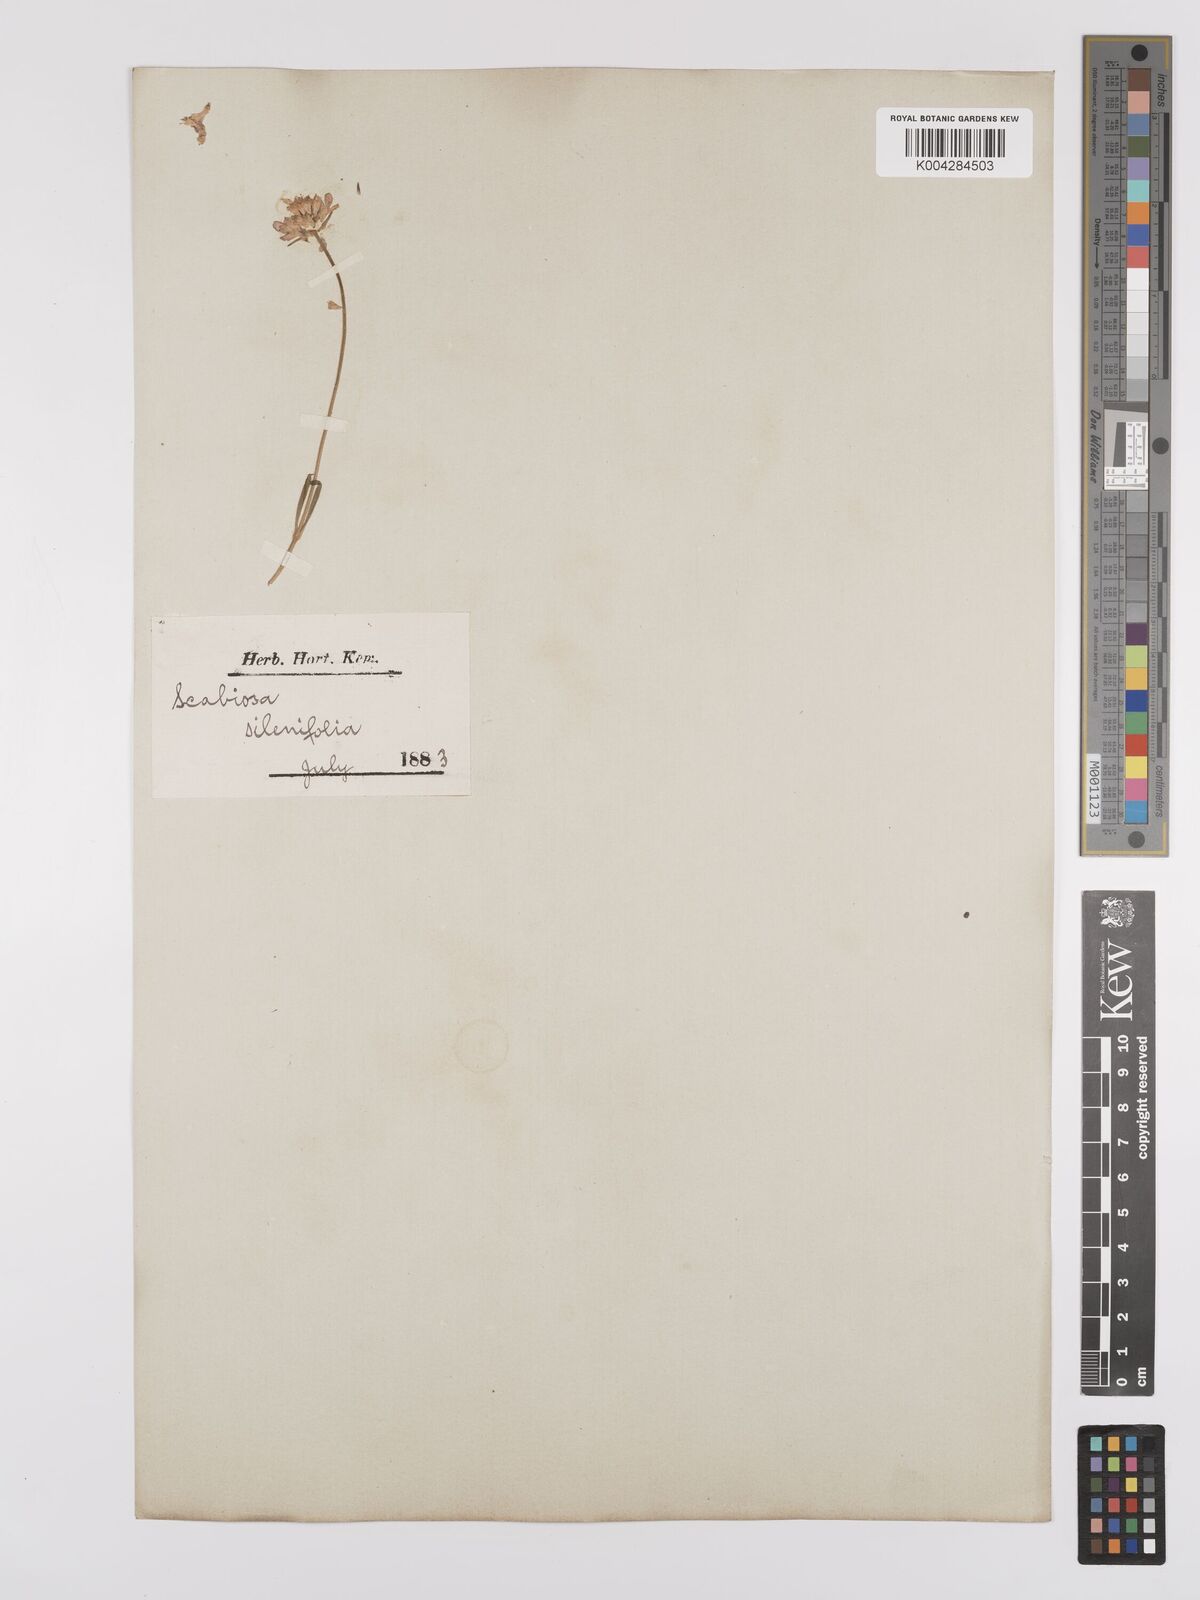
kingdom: Plantae
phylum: Tracheophyta
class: Magnoliopsida
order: Dipsacales
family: Caprifoliaceae
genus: Scabiosa
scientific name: Scabiosa silenifolia
